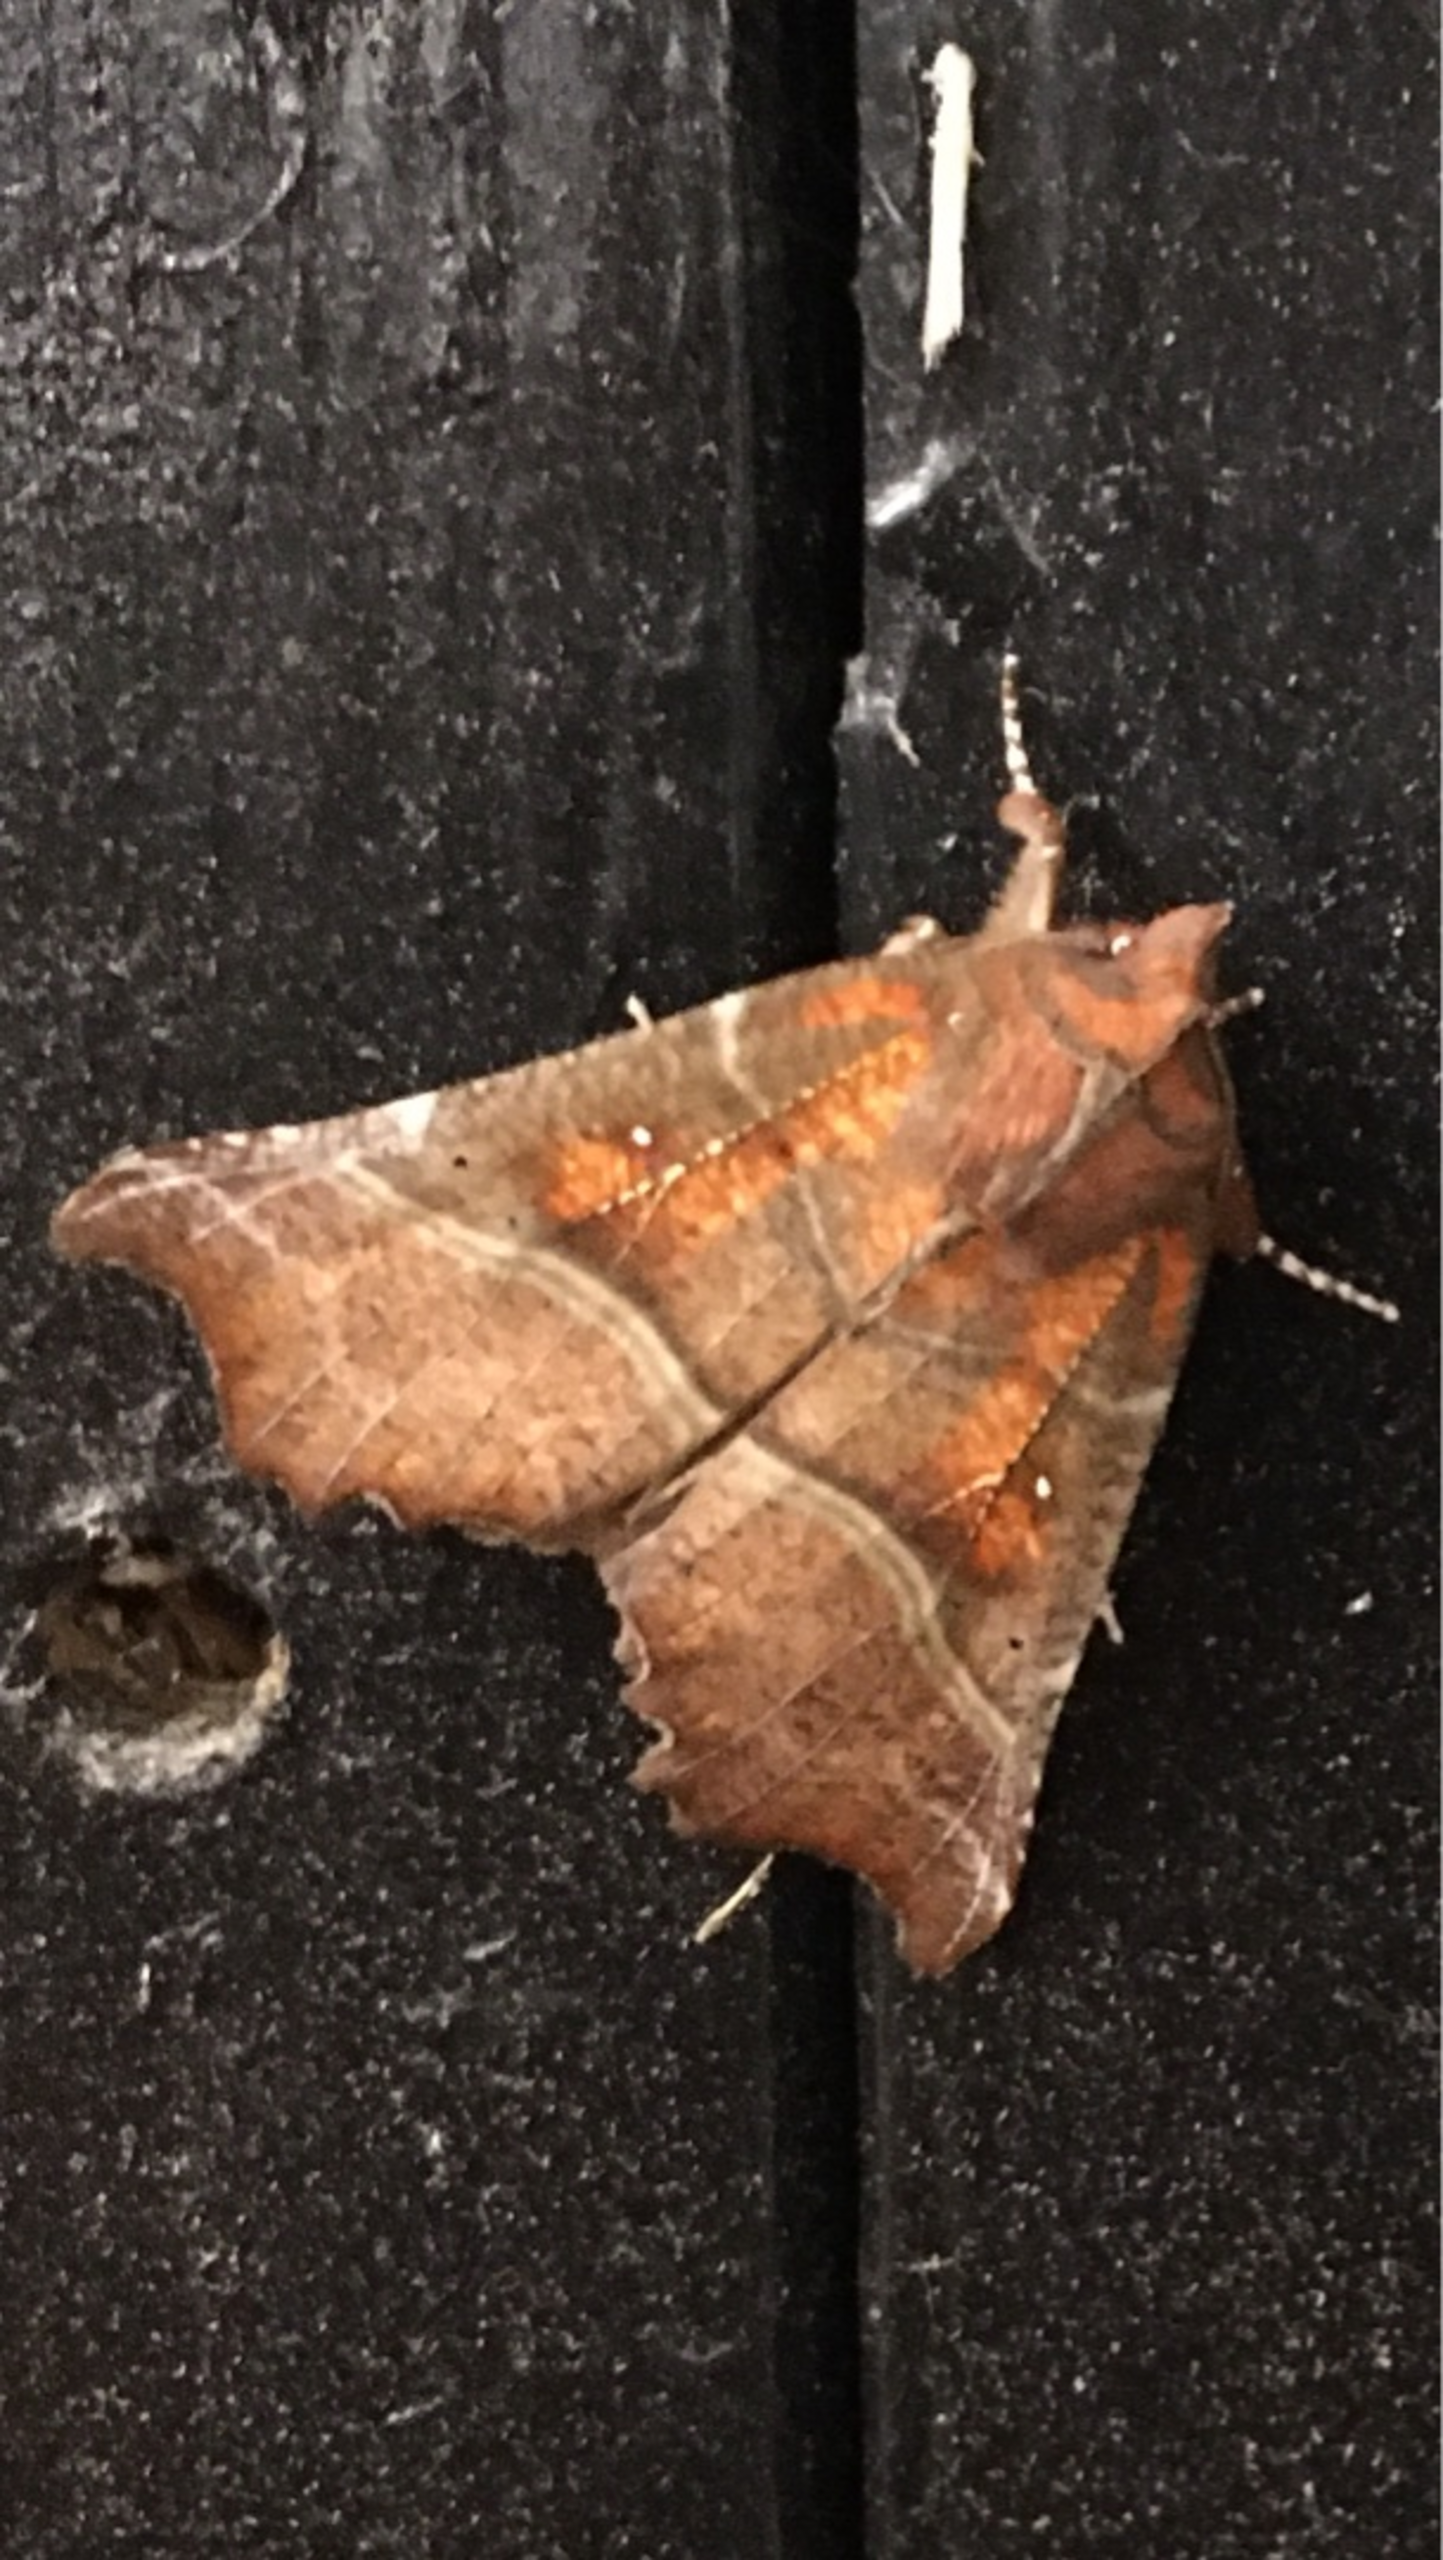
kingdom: Animalia
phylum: Arthropoda
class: Insecta
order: Lepidoptera
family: Erebidae
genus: Scoliopteryx
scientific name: Scoliopteryx libatrix
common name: Husmoderugle
